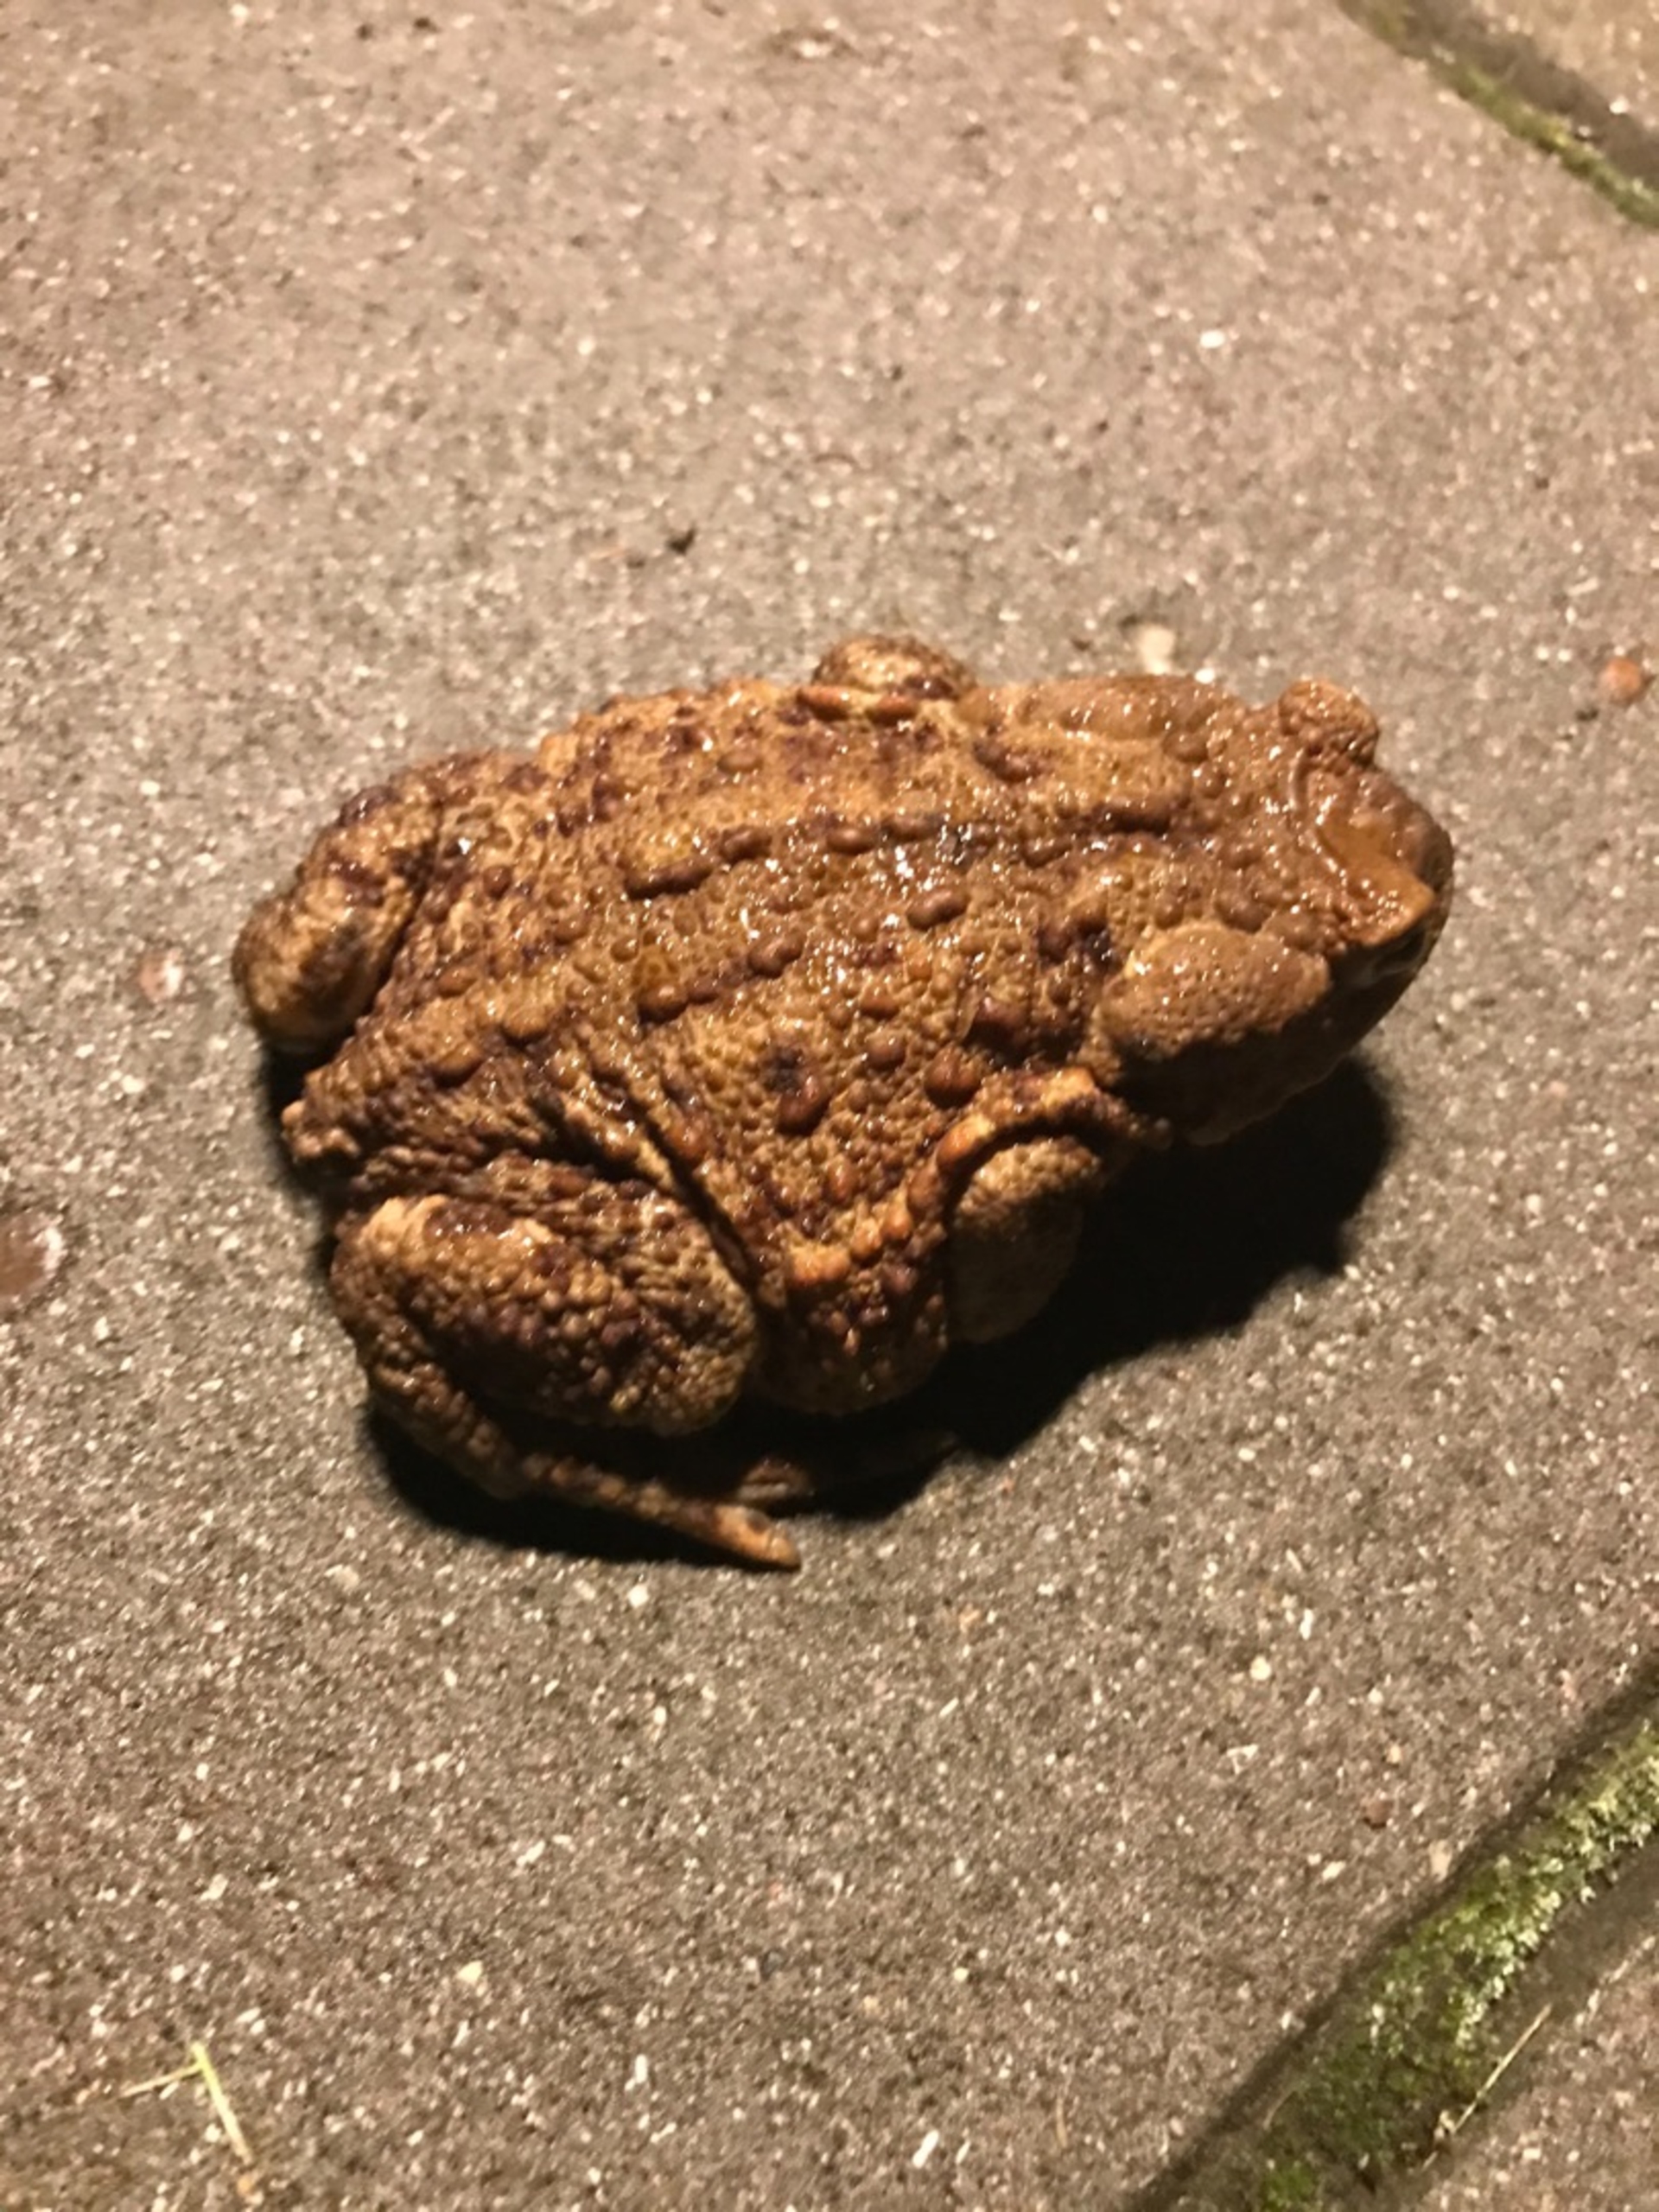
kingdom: Animalia
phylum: Chordata
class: Amphibia
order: Anura
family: Bufonidae
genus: Bufo
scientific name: Bufo bufo
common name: Skrubtudse
